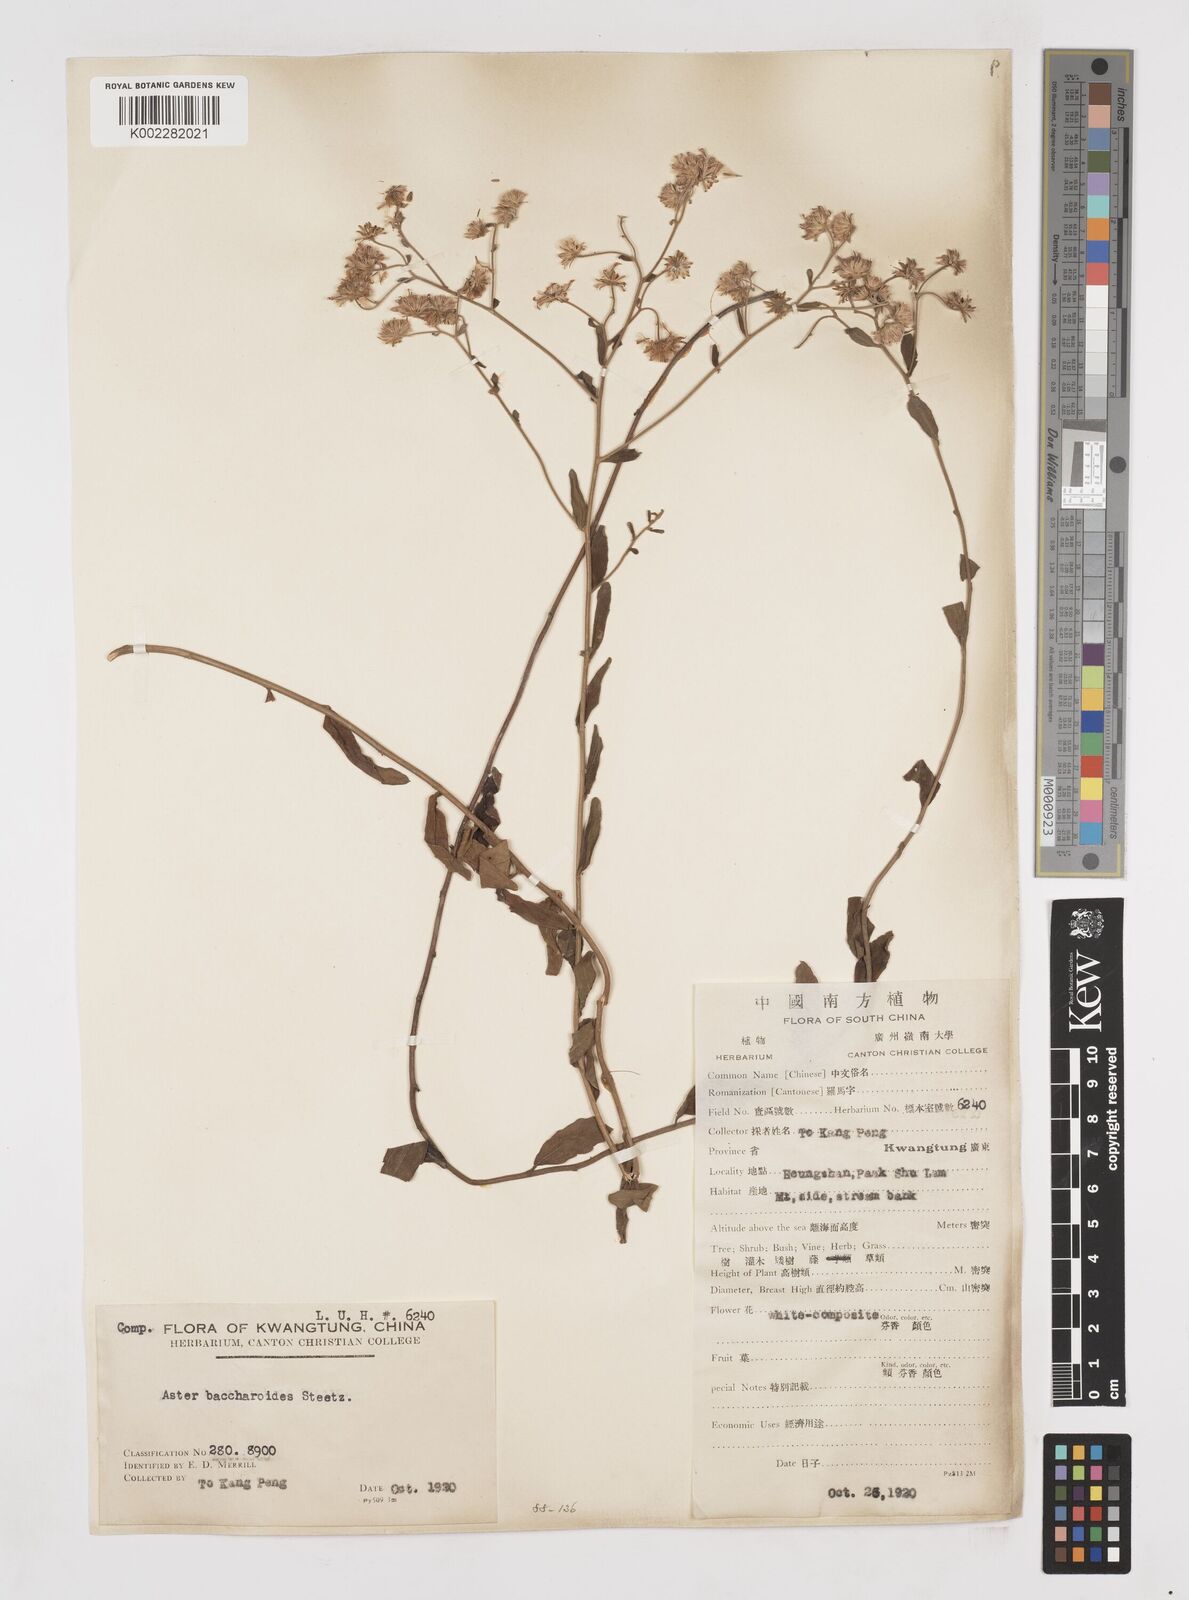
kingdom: Plantae
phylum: Tracheophyta
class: Magnoliopsida
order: Asterales
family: Asteraceae
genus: Aster
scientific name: Aster baccharoides
